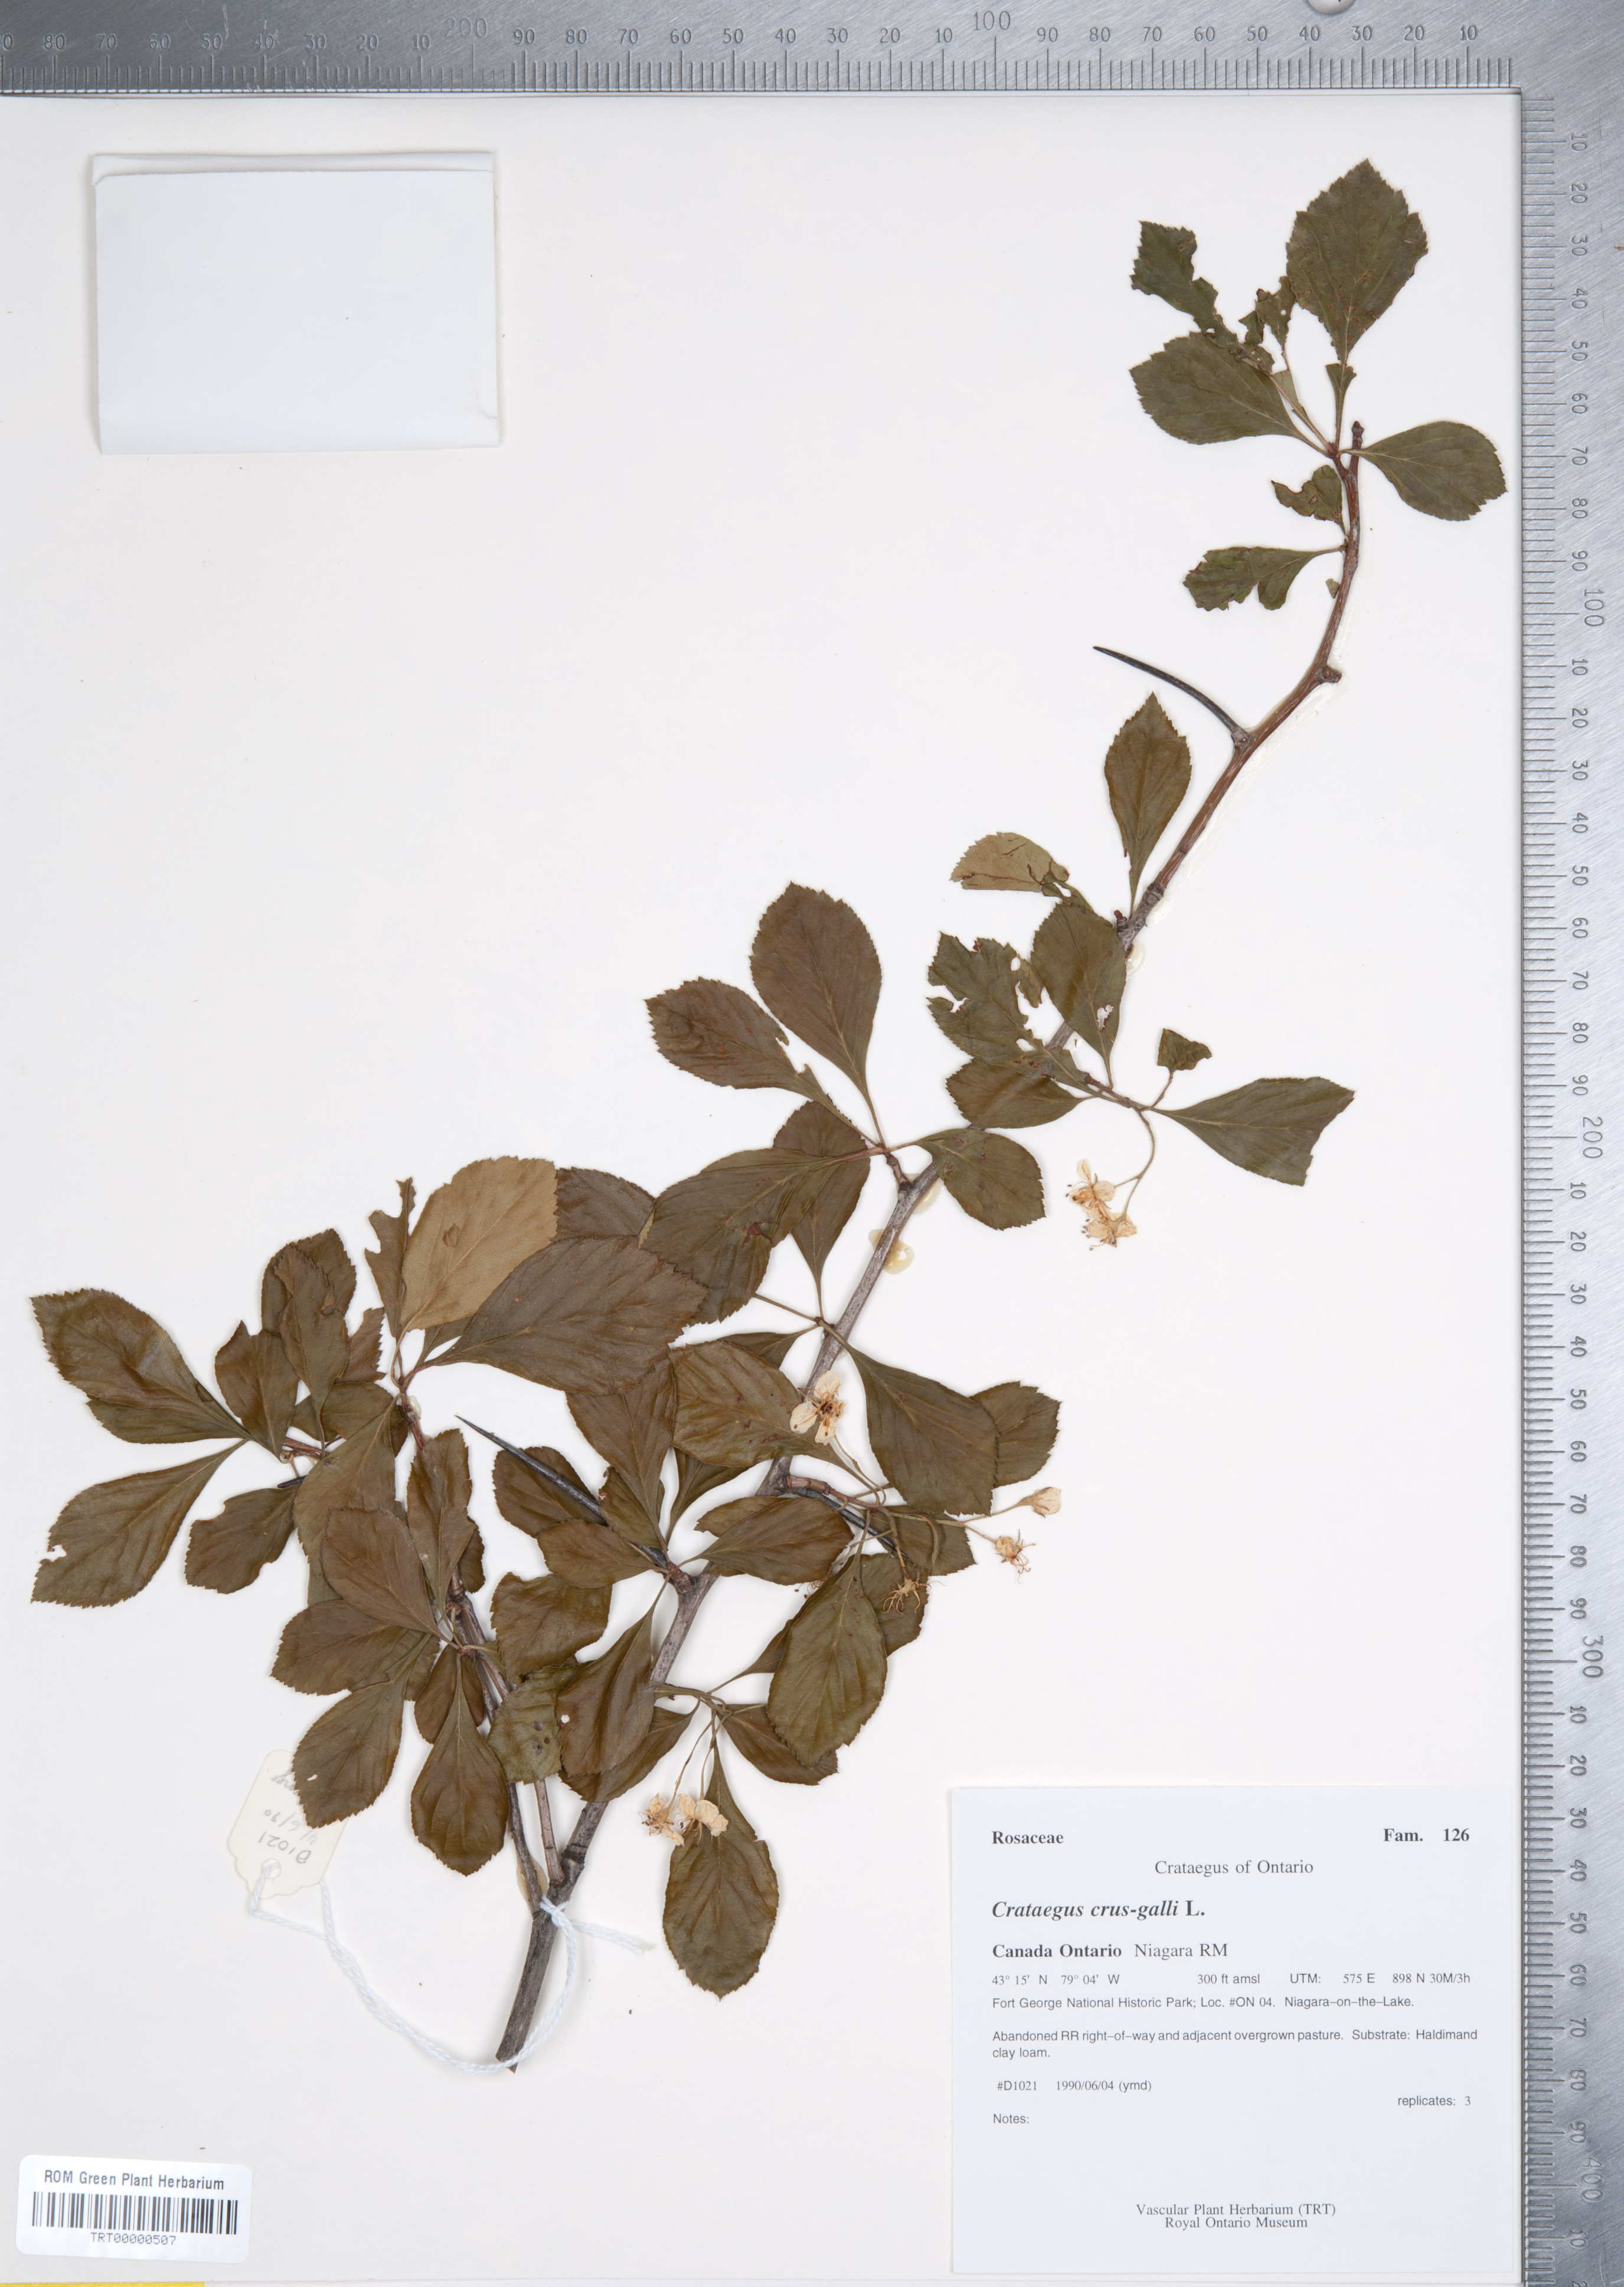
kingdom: Plantae
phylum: Tracheophyta
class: Magnoliopsida
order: Rosales
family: Rosaceae
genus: Crataegus
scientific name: Crataegus crus-galli
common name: Cockspurthorn
